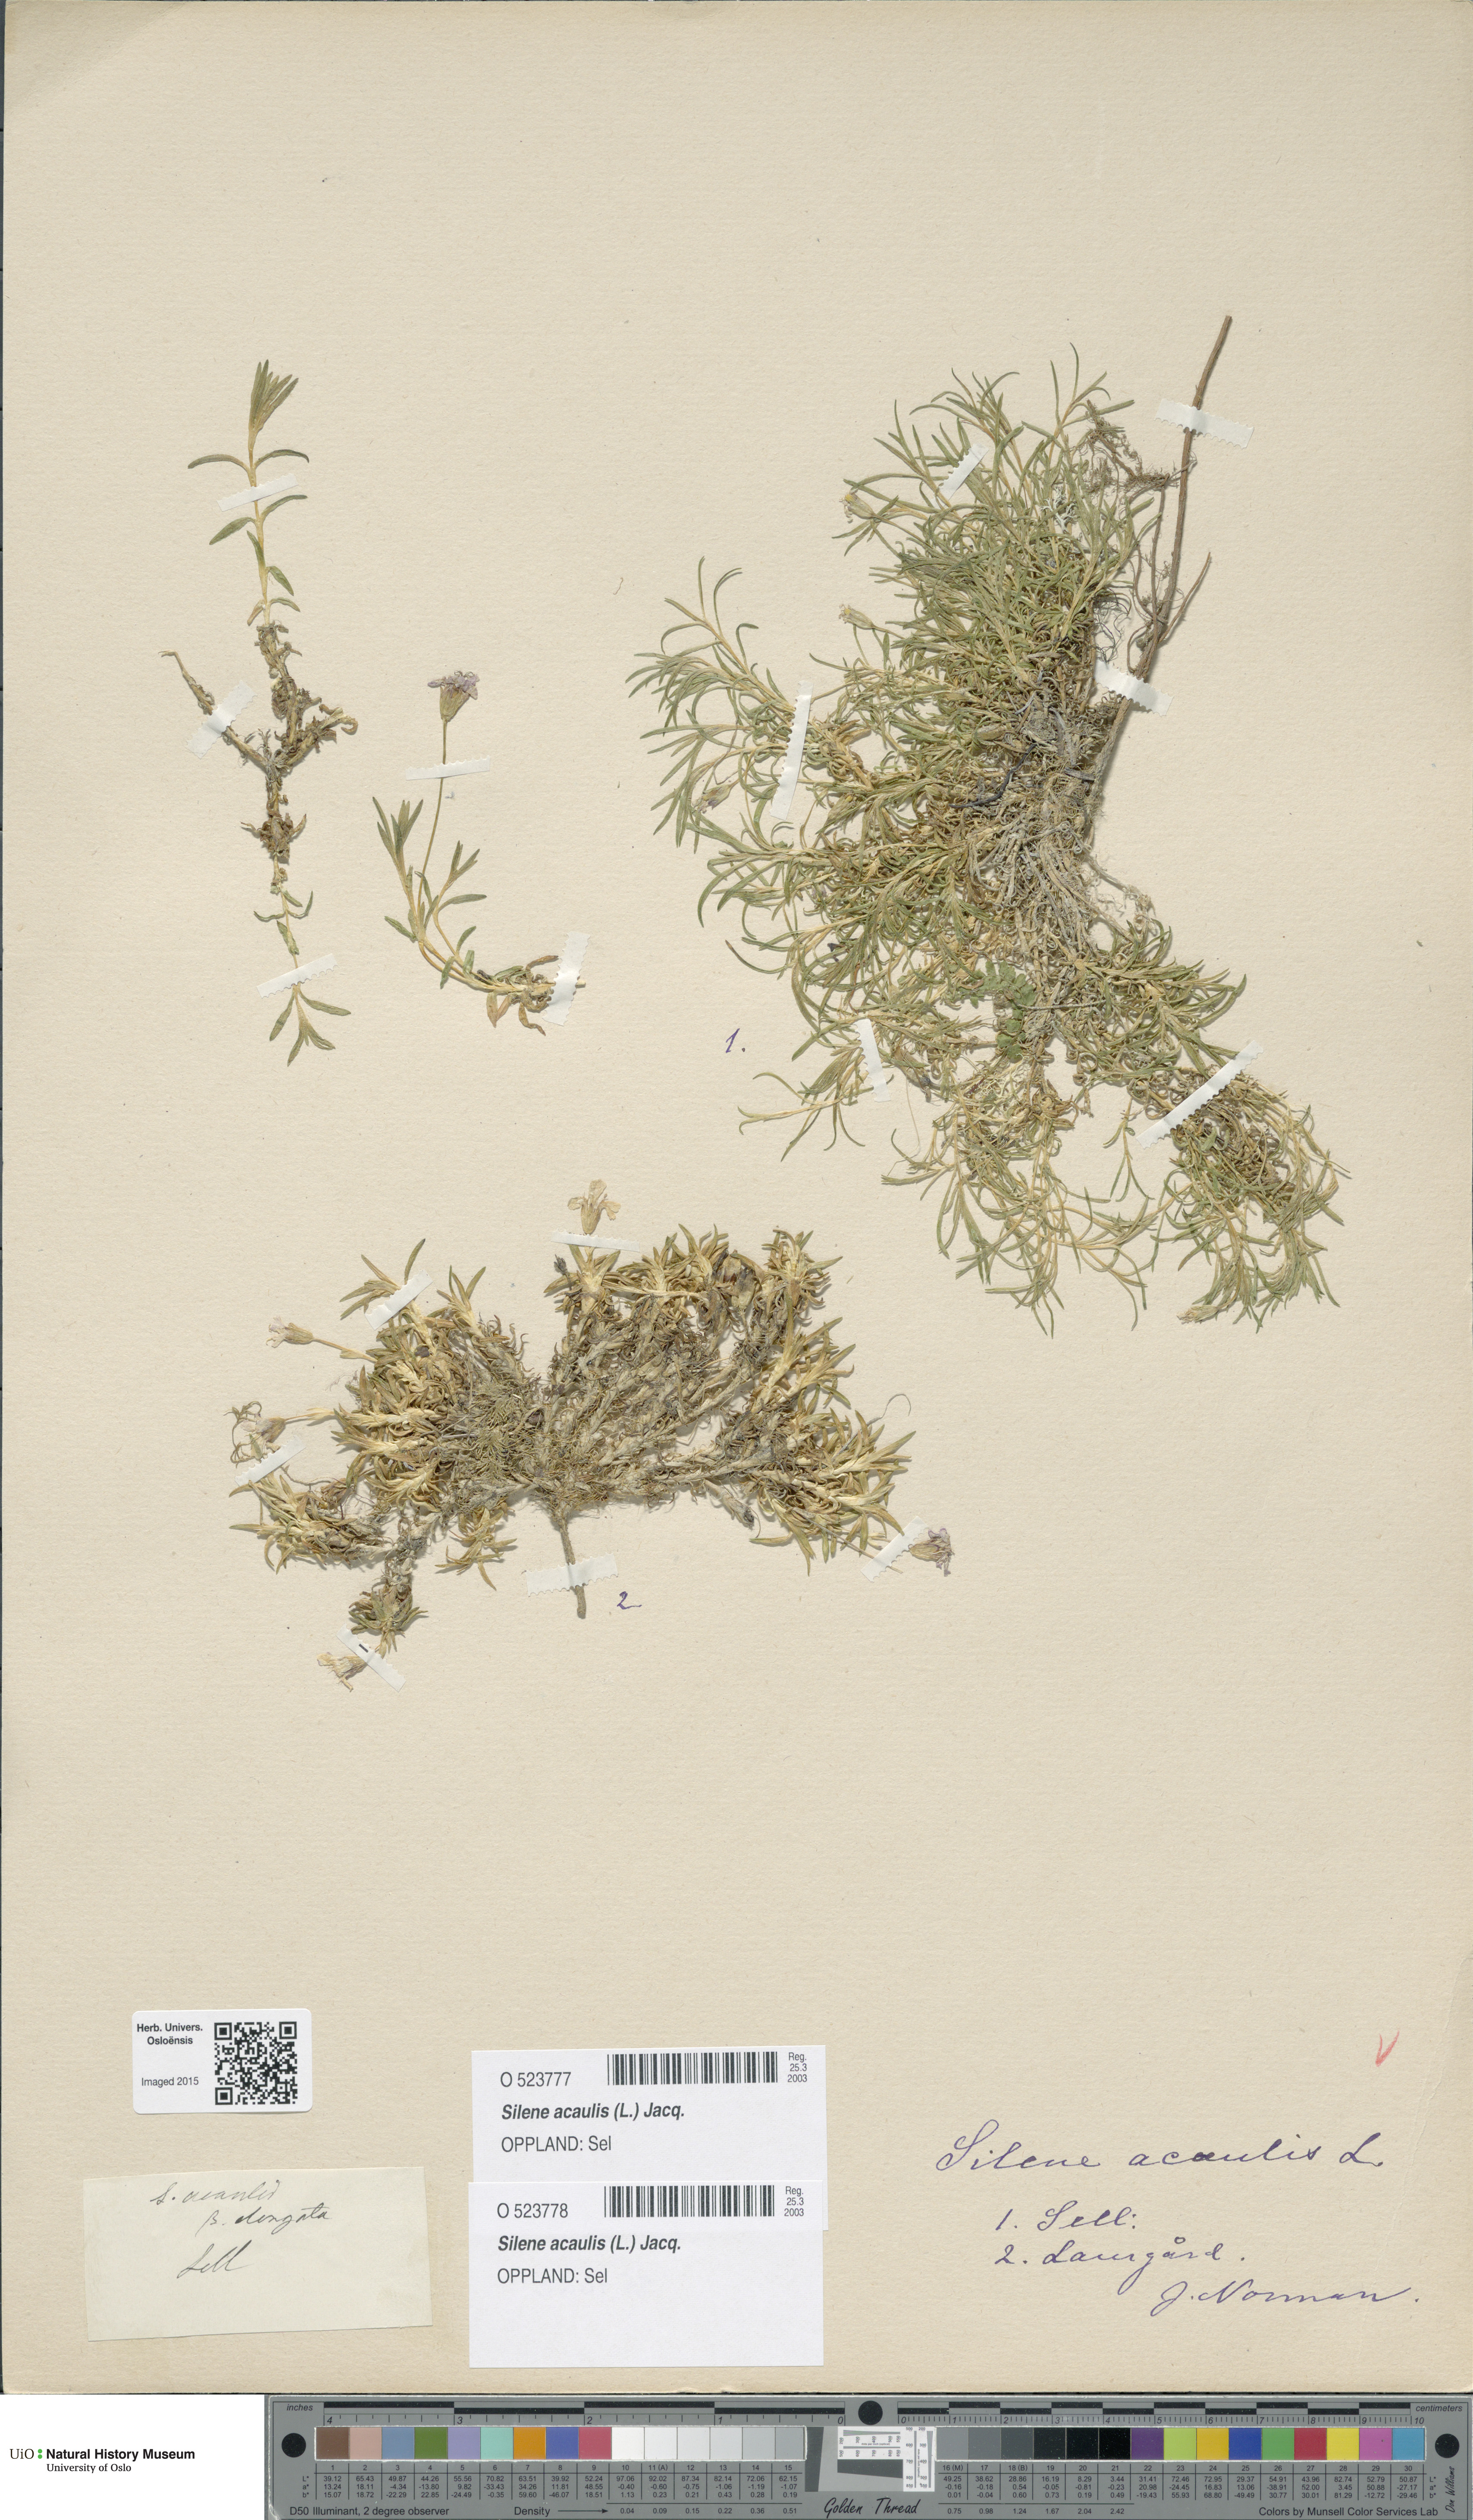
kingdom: Plantae
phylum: Tracheophyta
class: Magnoliopsida
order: Caryophyllales
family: Caryophyllaceae
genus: Silene
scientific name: Silene acaulis
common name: Moss campion
